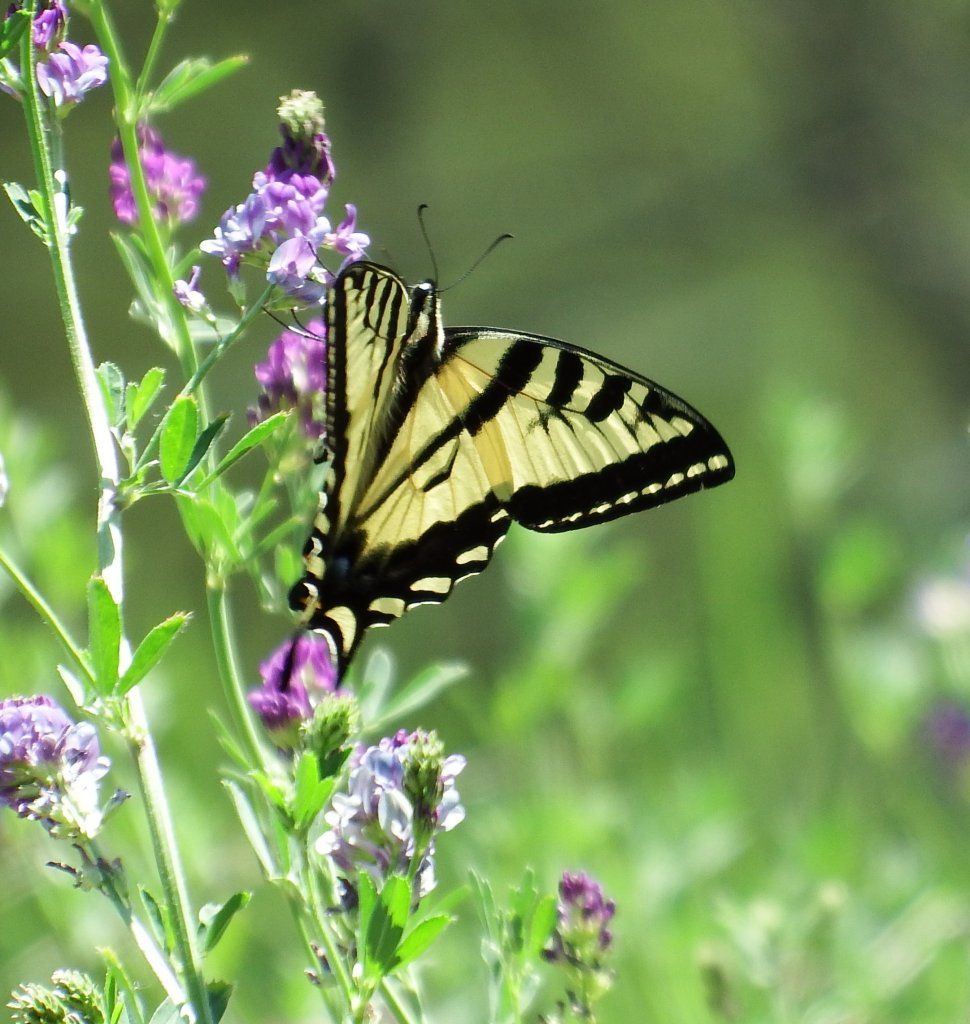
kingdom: Animalia
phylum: Arthropoda
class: Insecta
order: Lepidoptera
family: Papilionidae
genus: Pterourus
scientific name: Pterourus rutulus
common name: Western Tiger Swallowtail
